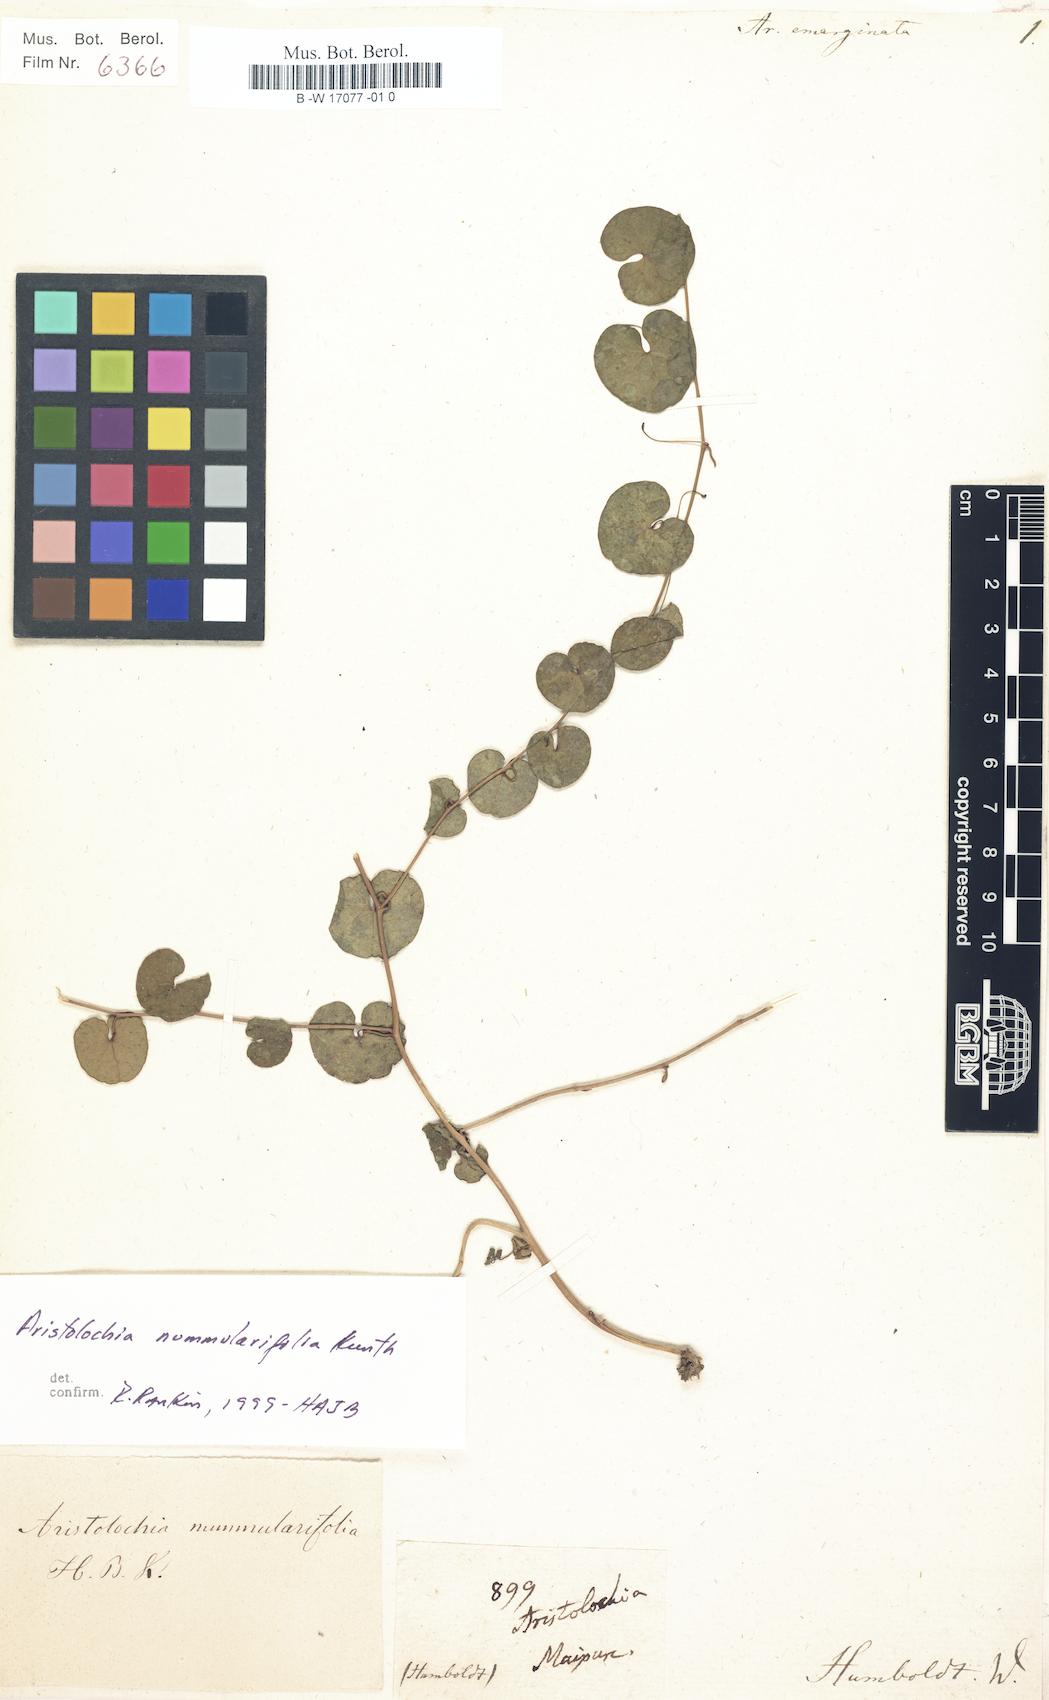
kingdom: Plantae
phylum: Tracheophyta
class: Magnoliopsida
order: Piperales
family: Aristolochiaceae
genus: Aristolochia
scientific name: Aristolochia nummularifolia
